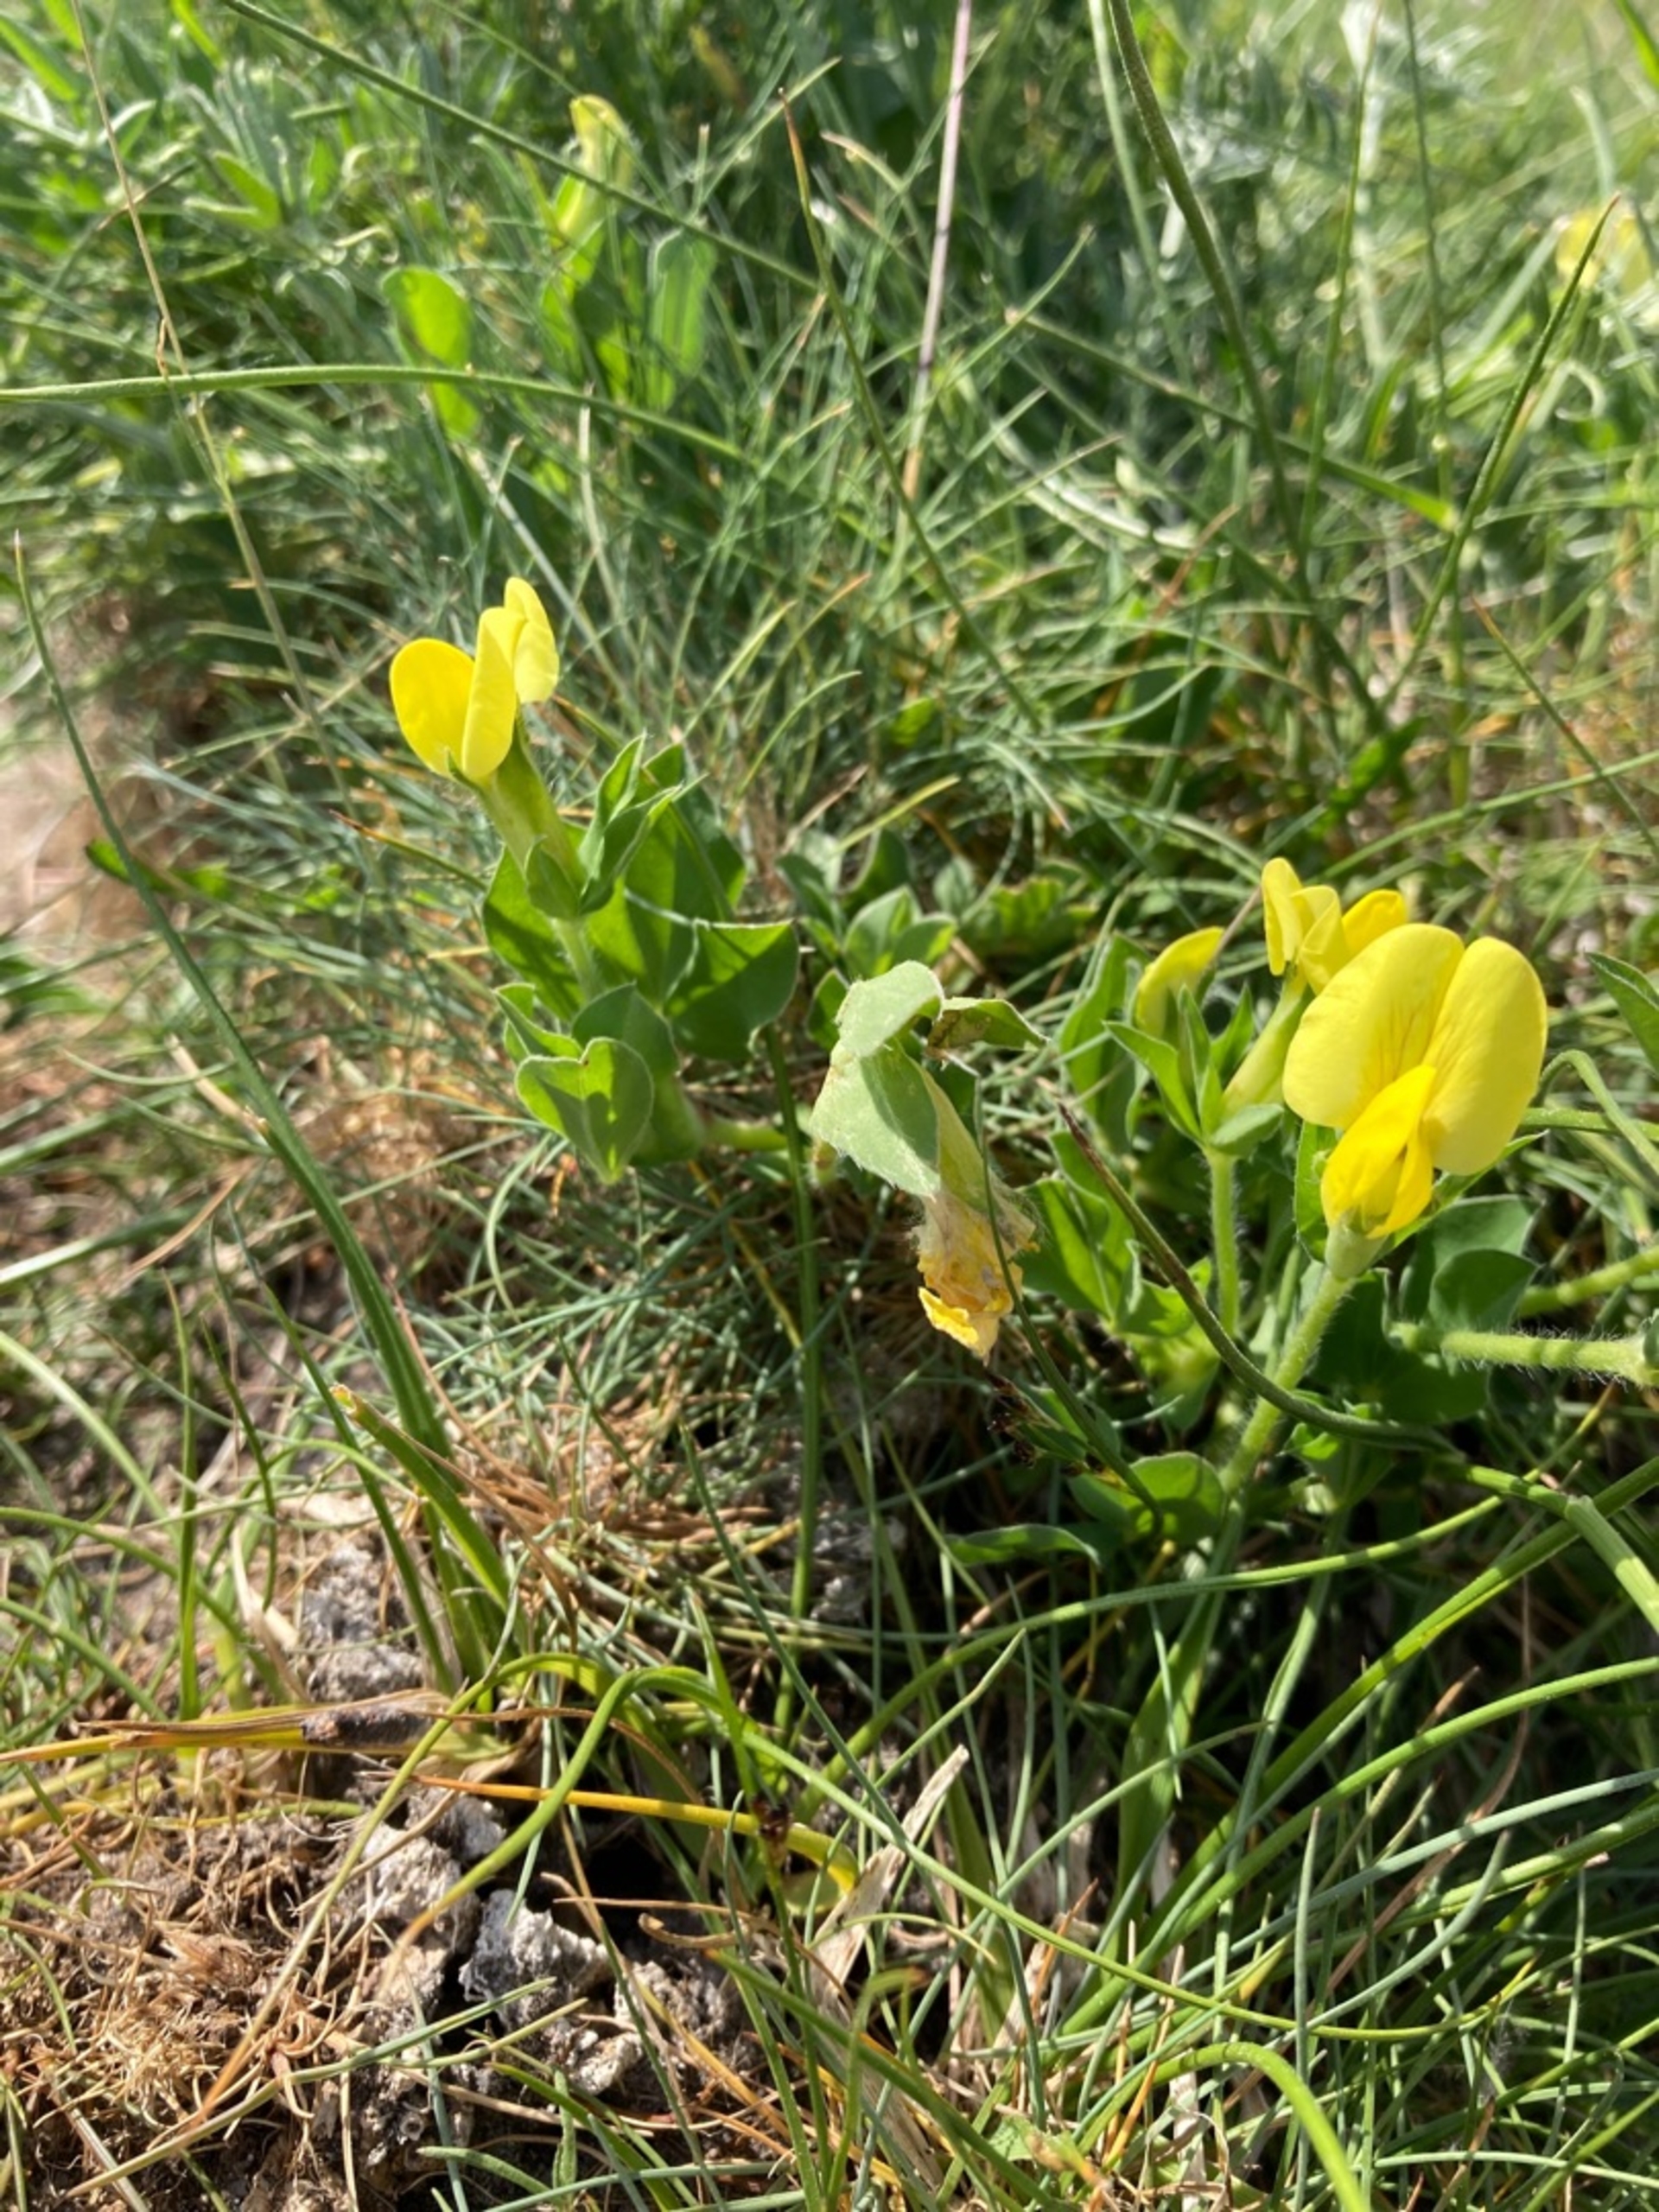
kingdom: Plantae
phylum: Tracheophyta
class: Magnoliopsida
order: Fabales
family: Fabaceae
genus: Lotus
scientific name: Lotus maritimus
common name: Kantbælg
